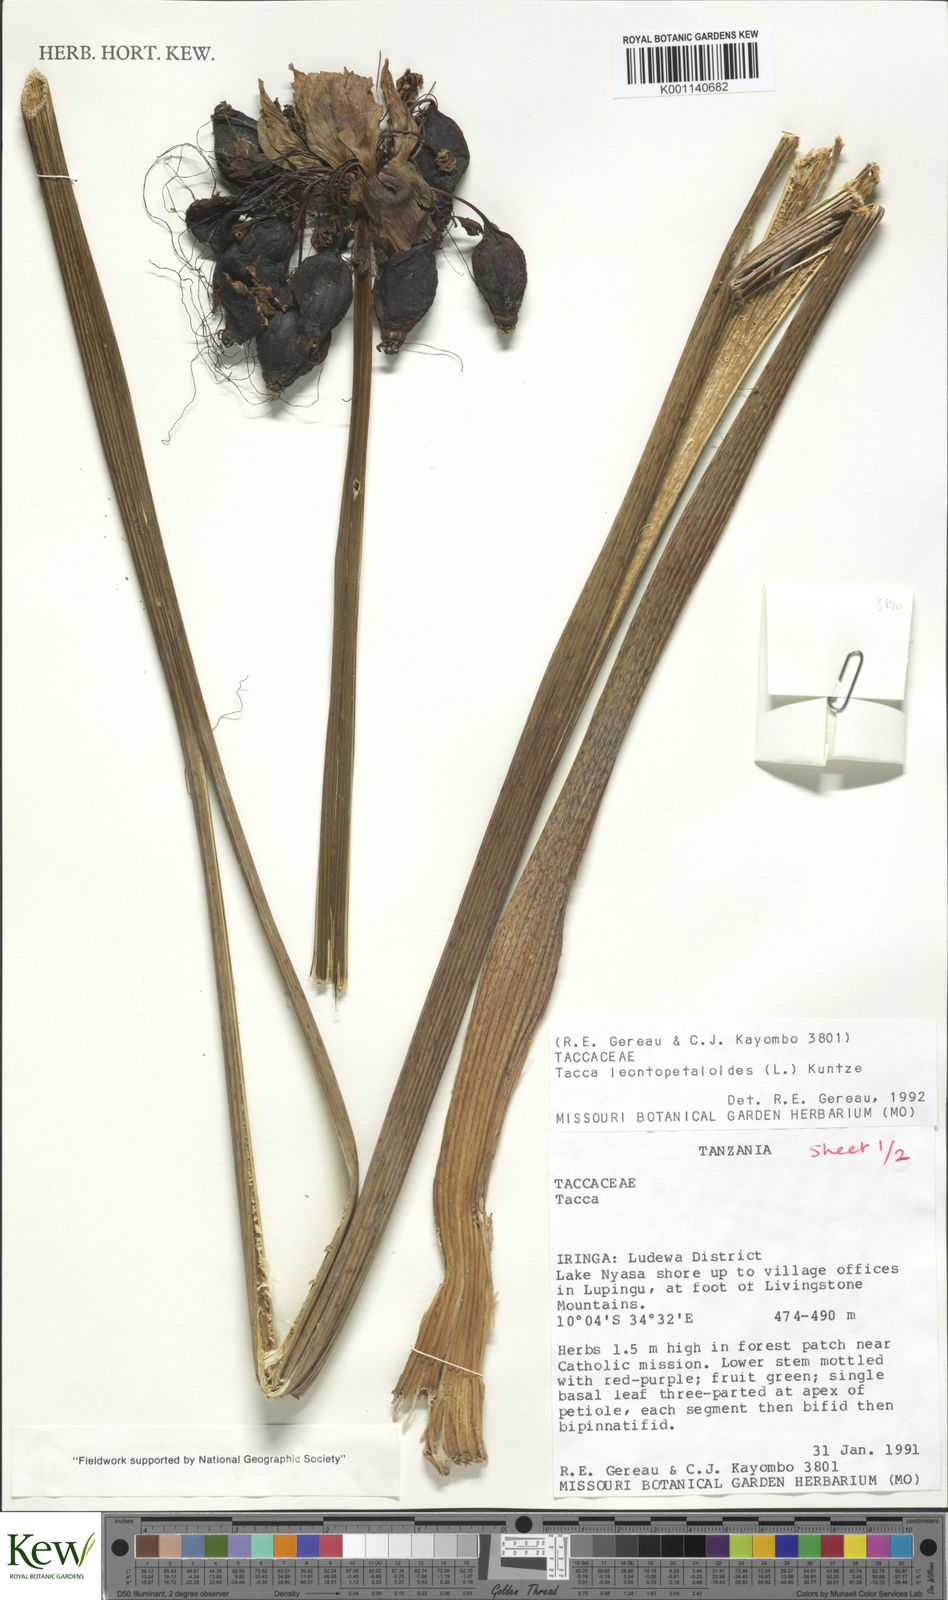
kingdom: Plantae
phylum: Tracheophyta
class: Liliopsida
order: Dioscoreales
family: Dioscoreaceae
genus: Tacca
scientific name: Tacca leontopetaloides
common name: Arrowroot
